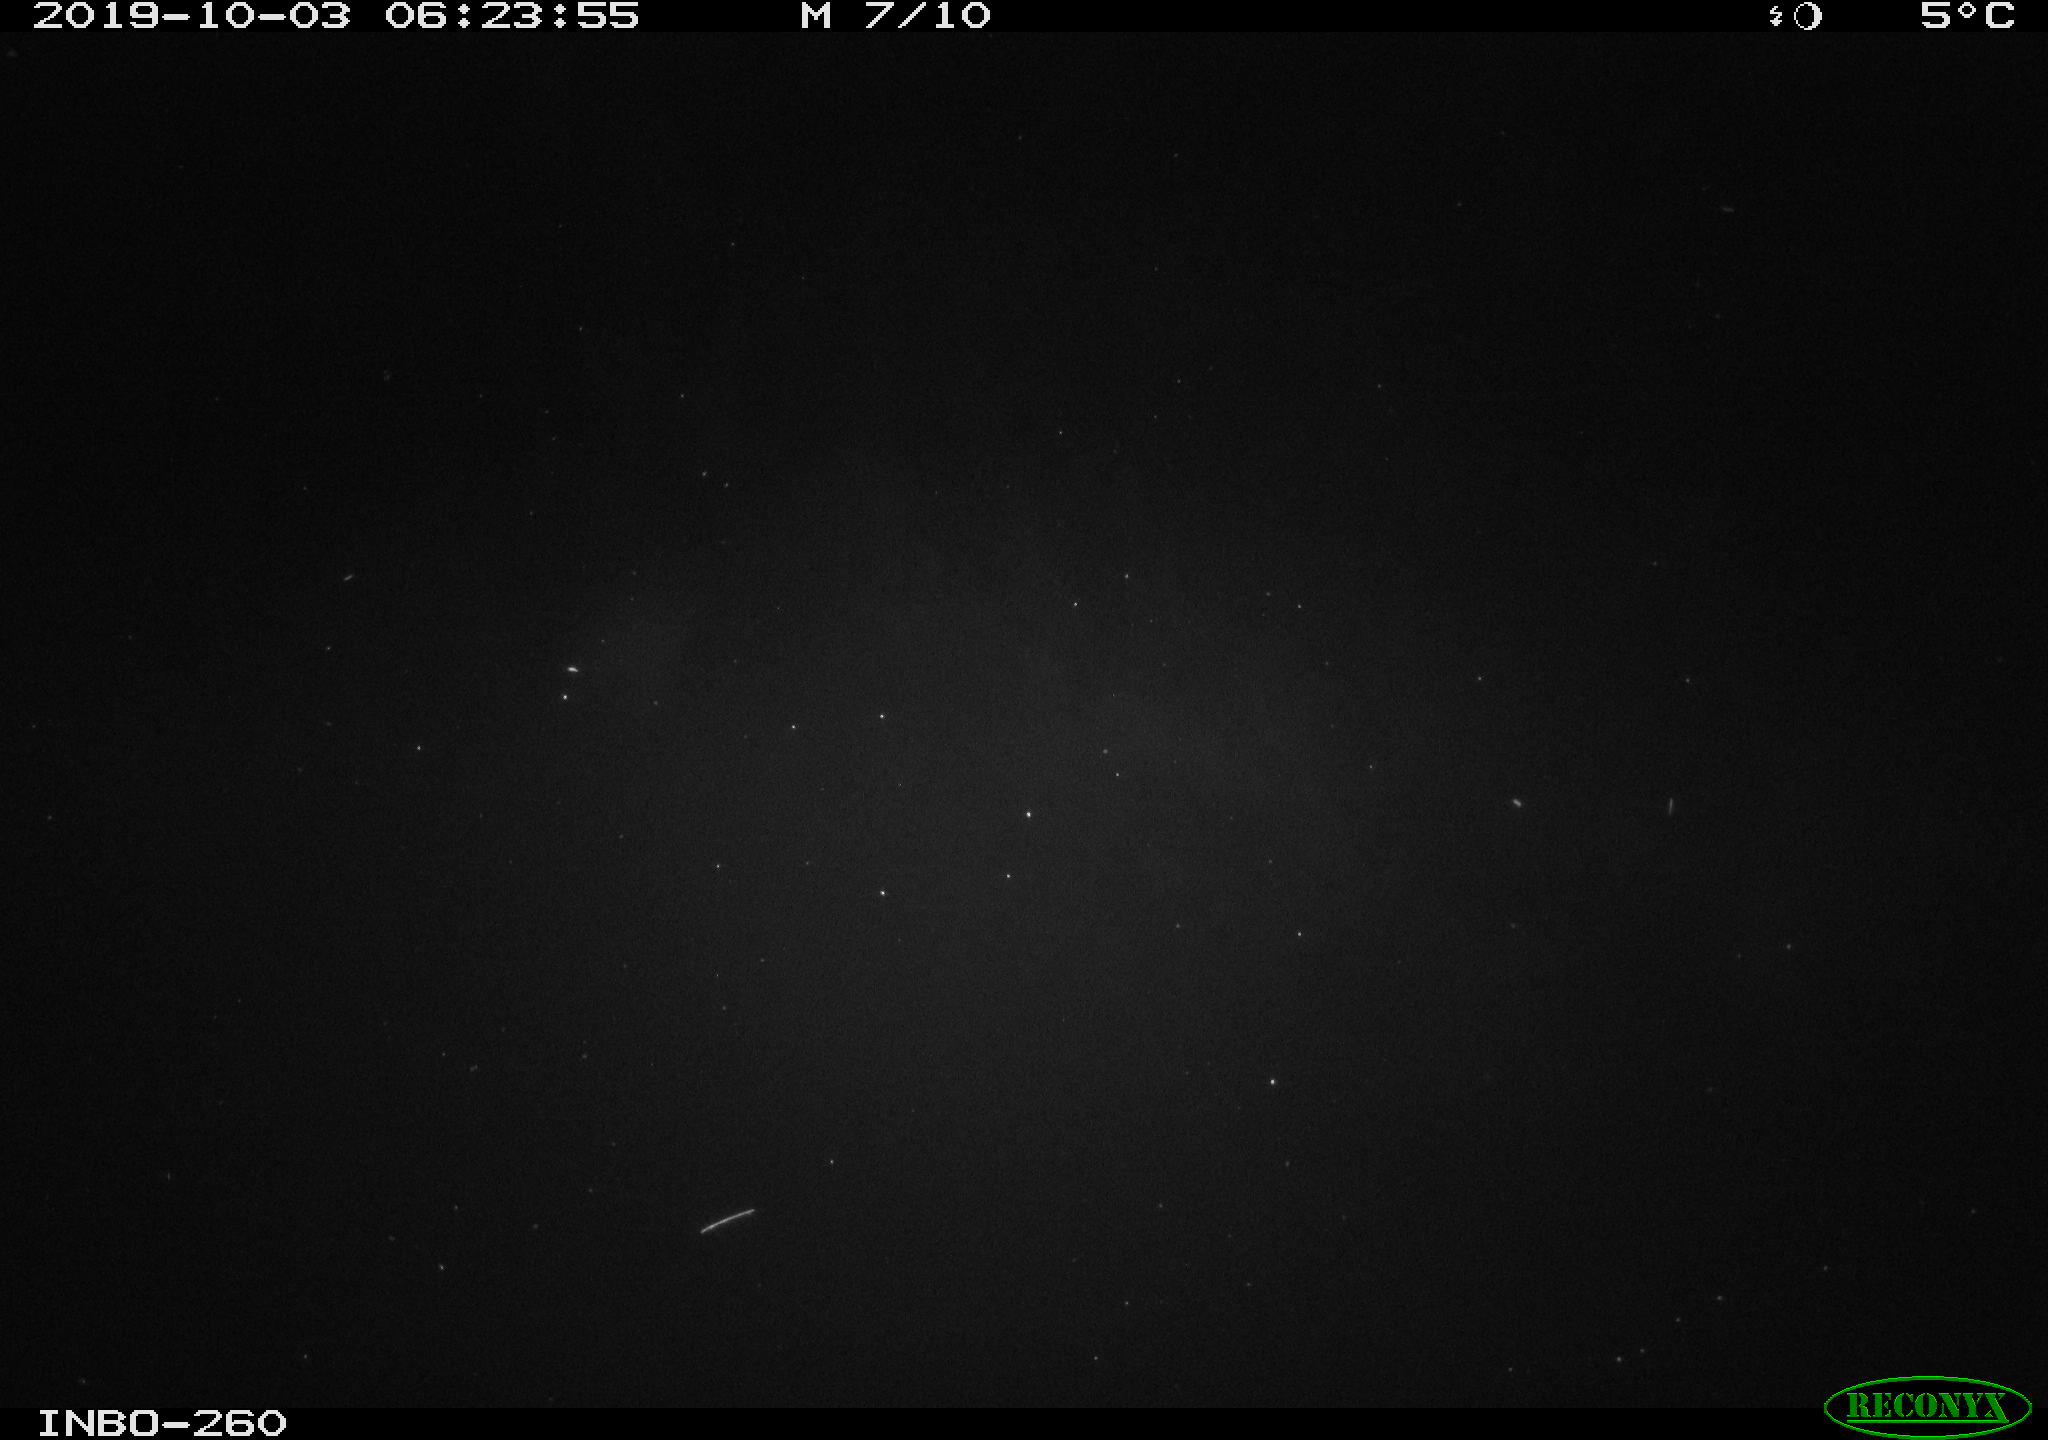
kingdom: Animalia
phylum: Chordata
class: Aves
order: Anseriformes
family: Anatidae
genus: Anas
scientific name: Anas platyrhynchos
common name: Mallard
